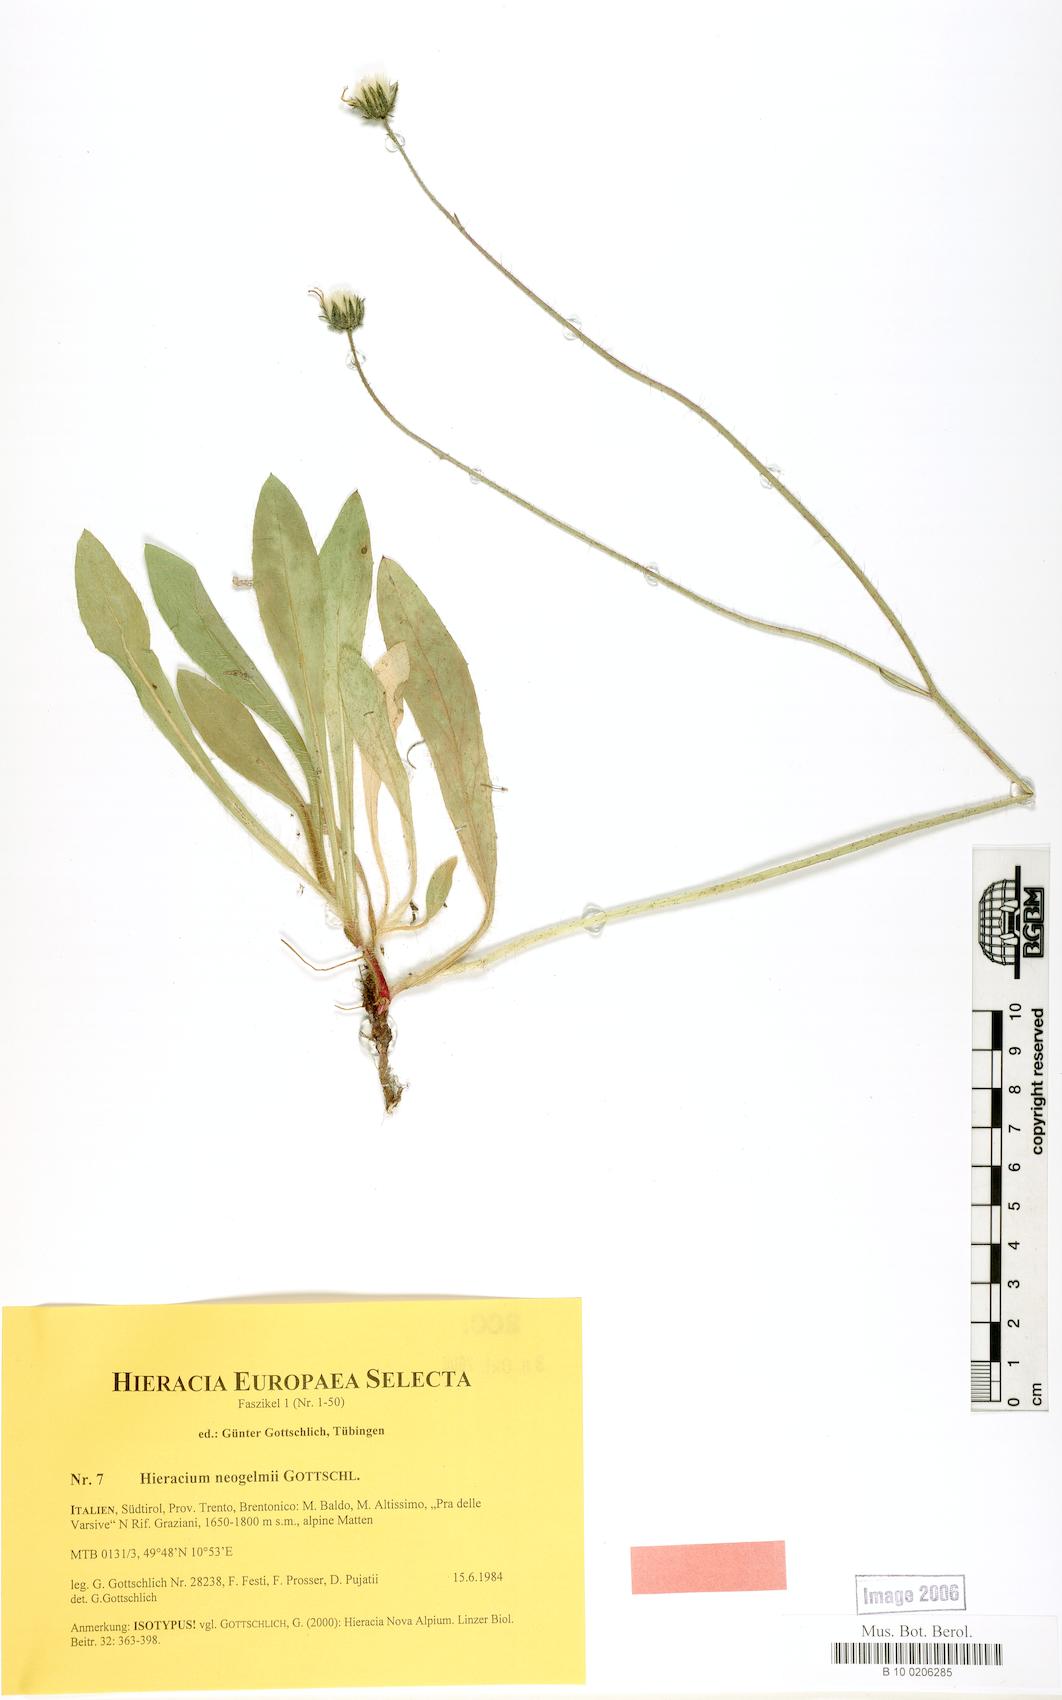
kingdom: Plantae
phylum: Tracheophyta
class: Magnoliopsida
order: Asterales
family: Asteraceae
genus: Pilosella
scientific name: Pilosella neogelmii
